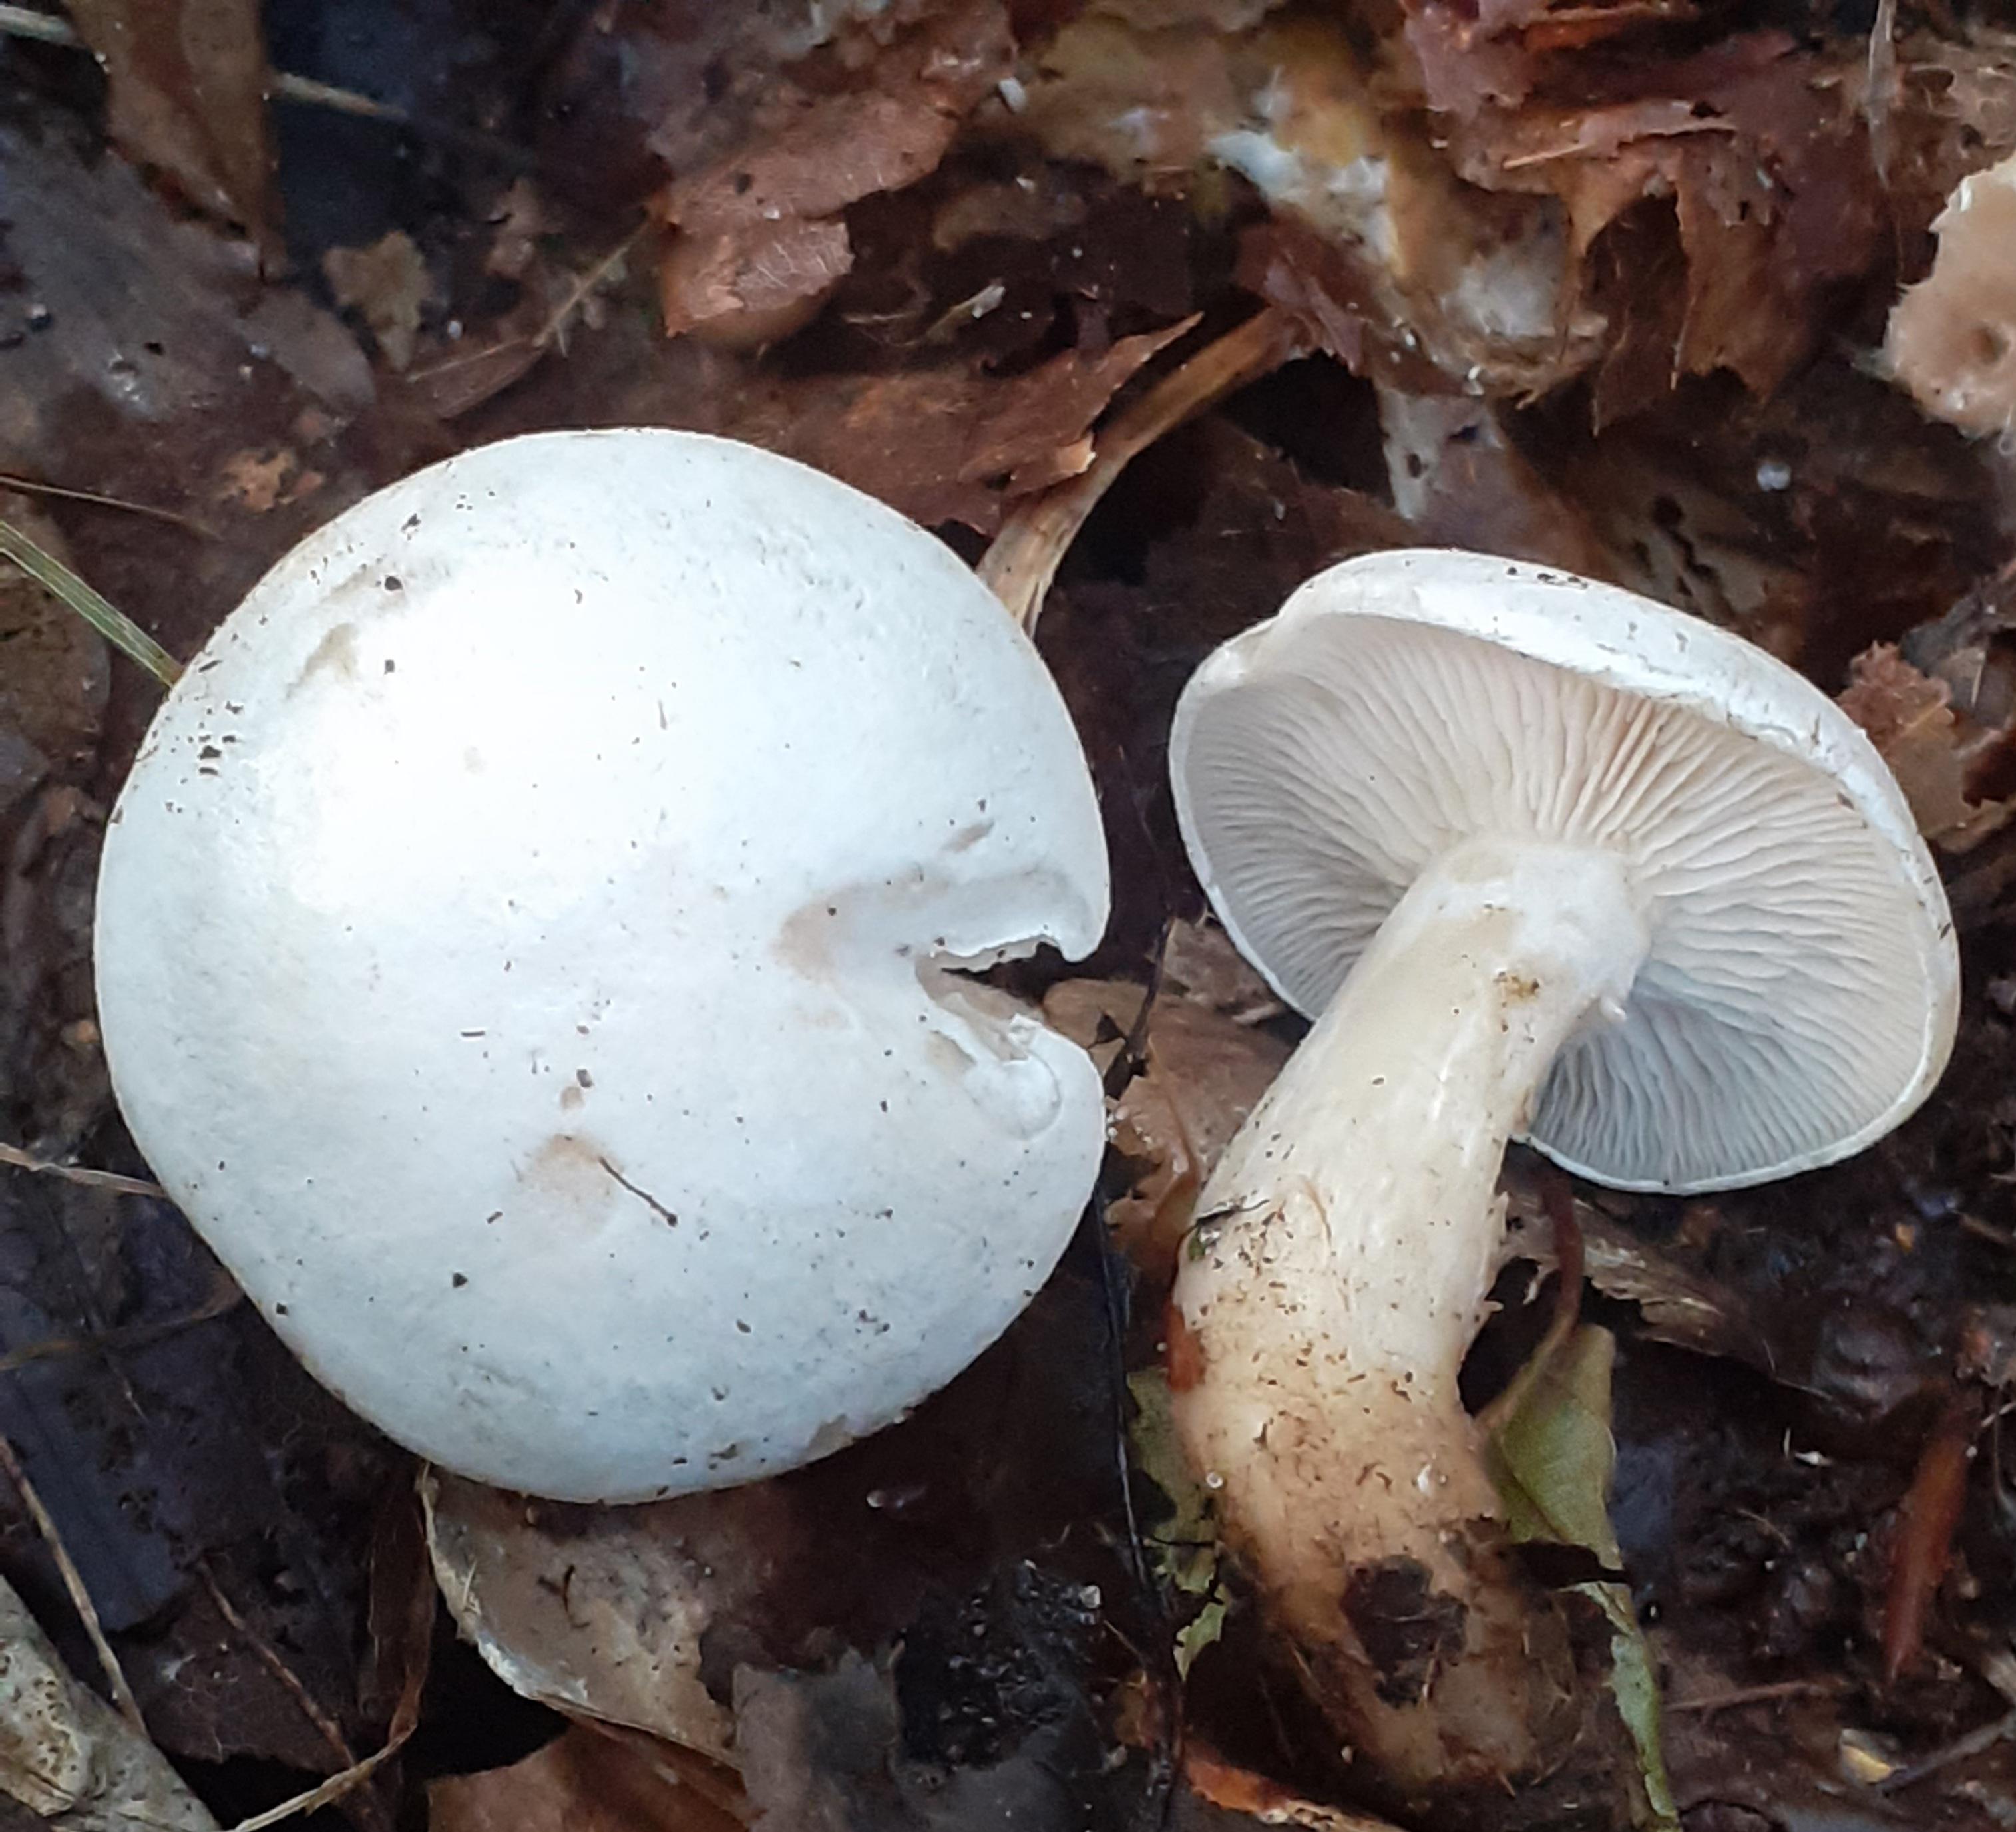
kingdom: Fungi
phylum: Basidiomycota
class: Agaricomycetes
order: Agaricales
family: Tricholomataceae
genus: Clitocybe
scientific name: Clitocybe phyllophila
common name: løv-tragthat
